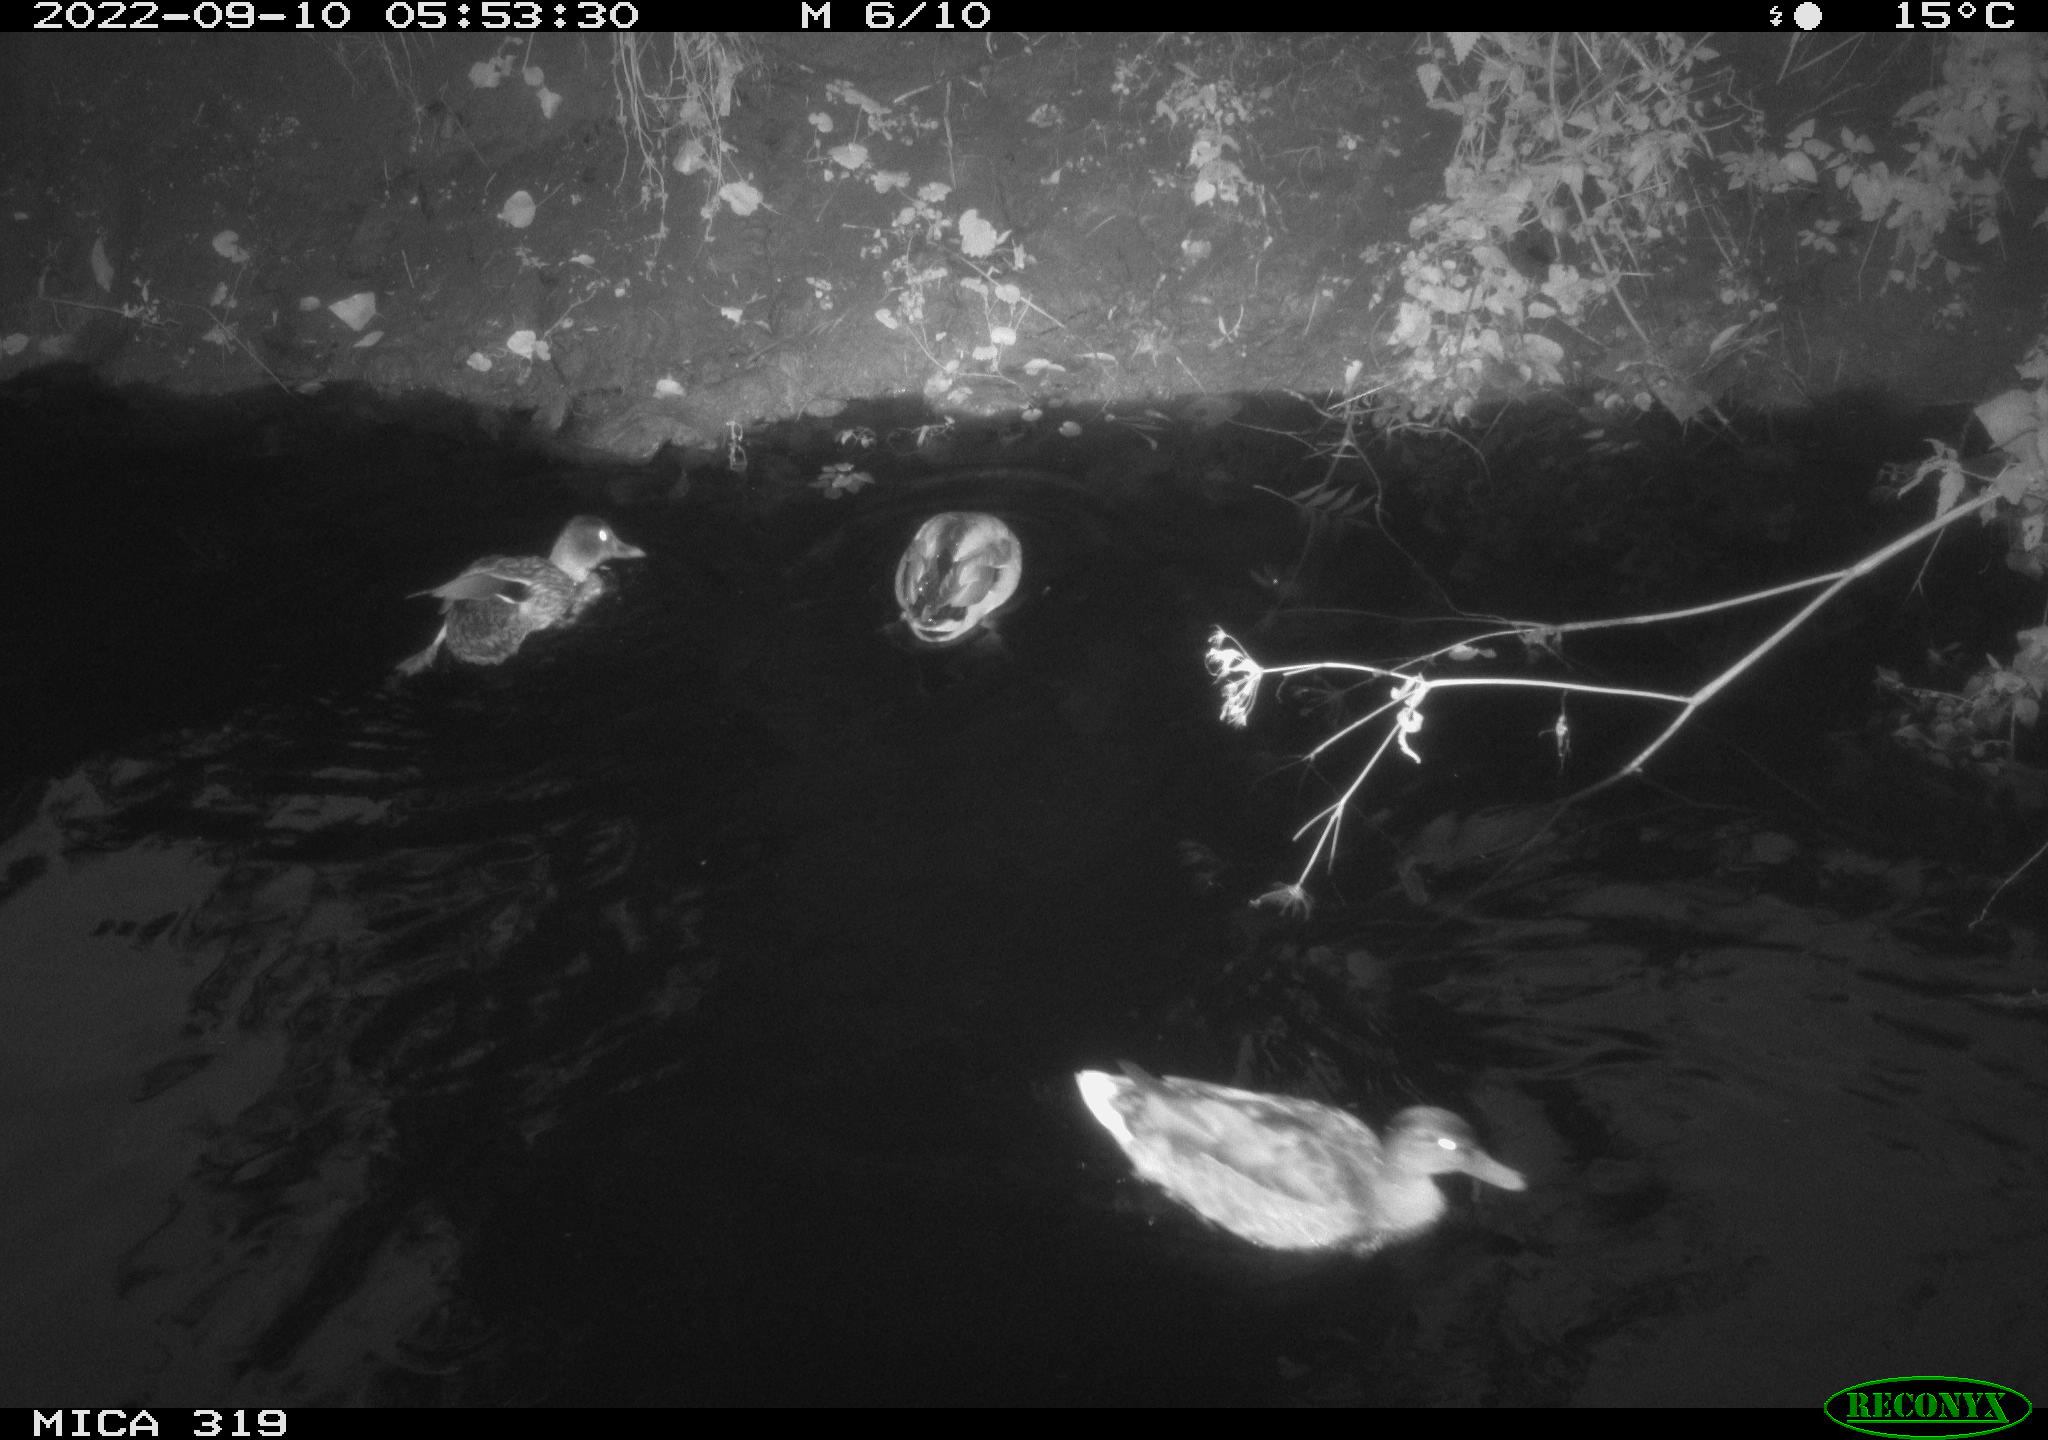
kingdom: Animalia
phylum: Chordata
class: Aves
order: Anseriformes
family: Anatidae
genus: Anas
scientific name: Anas
